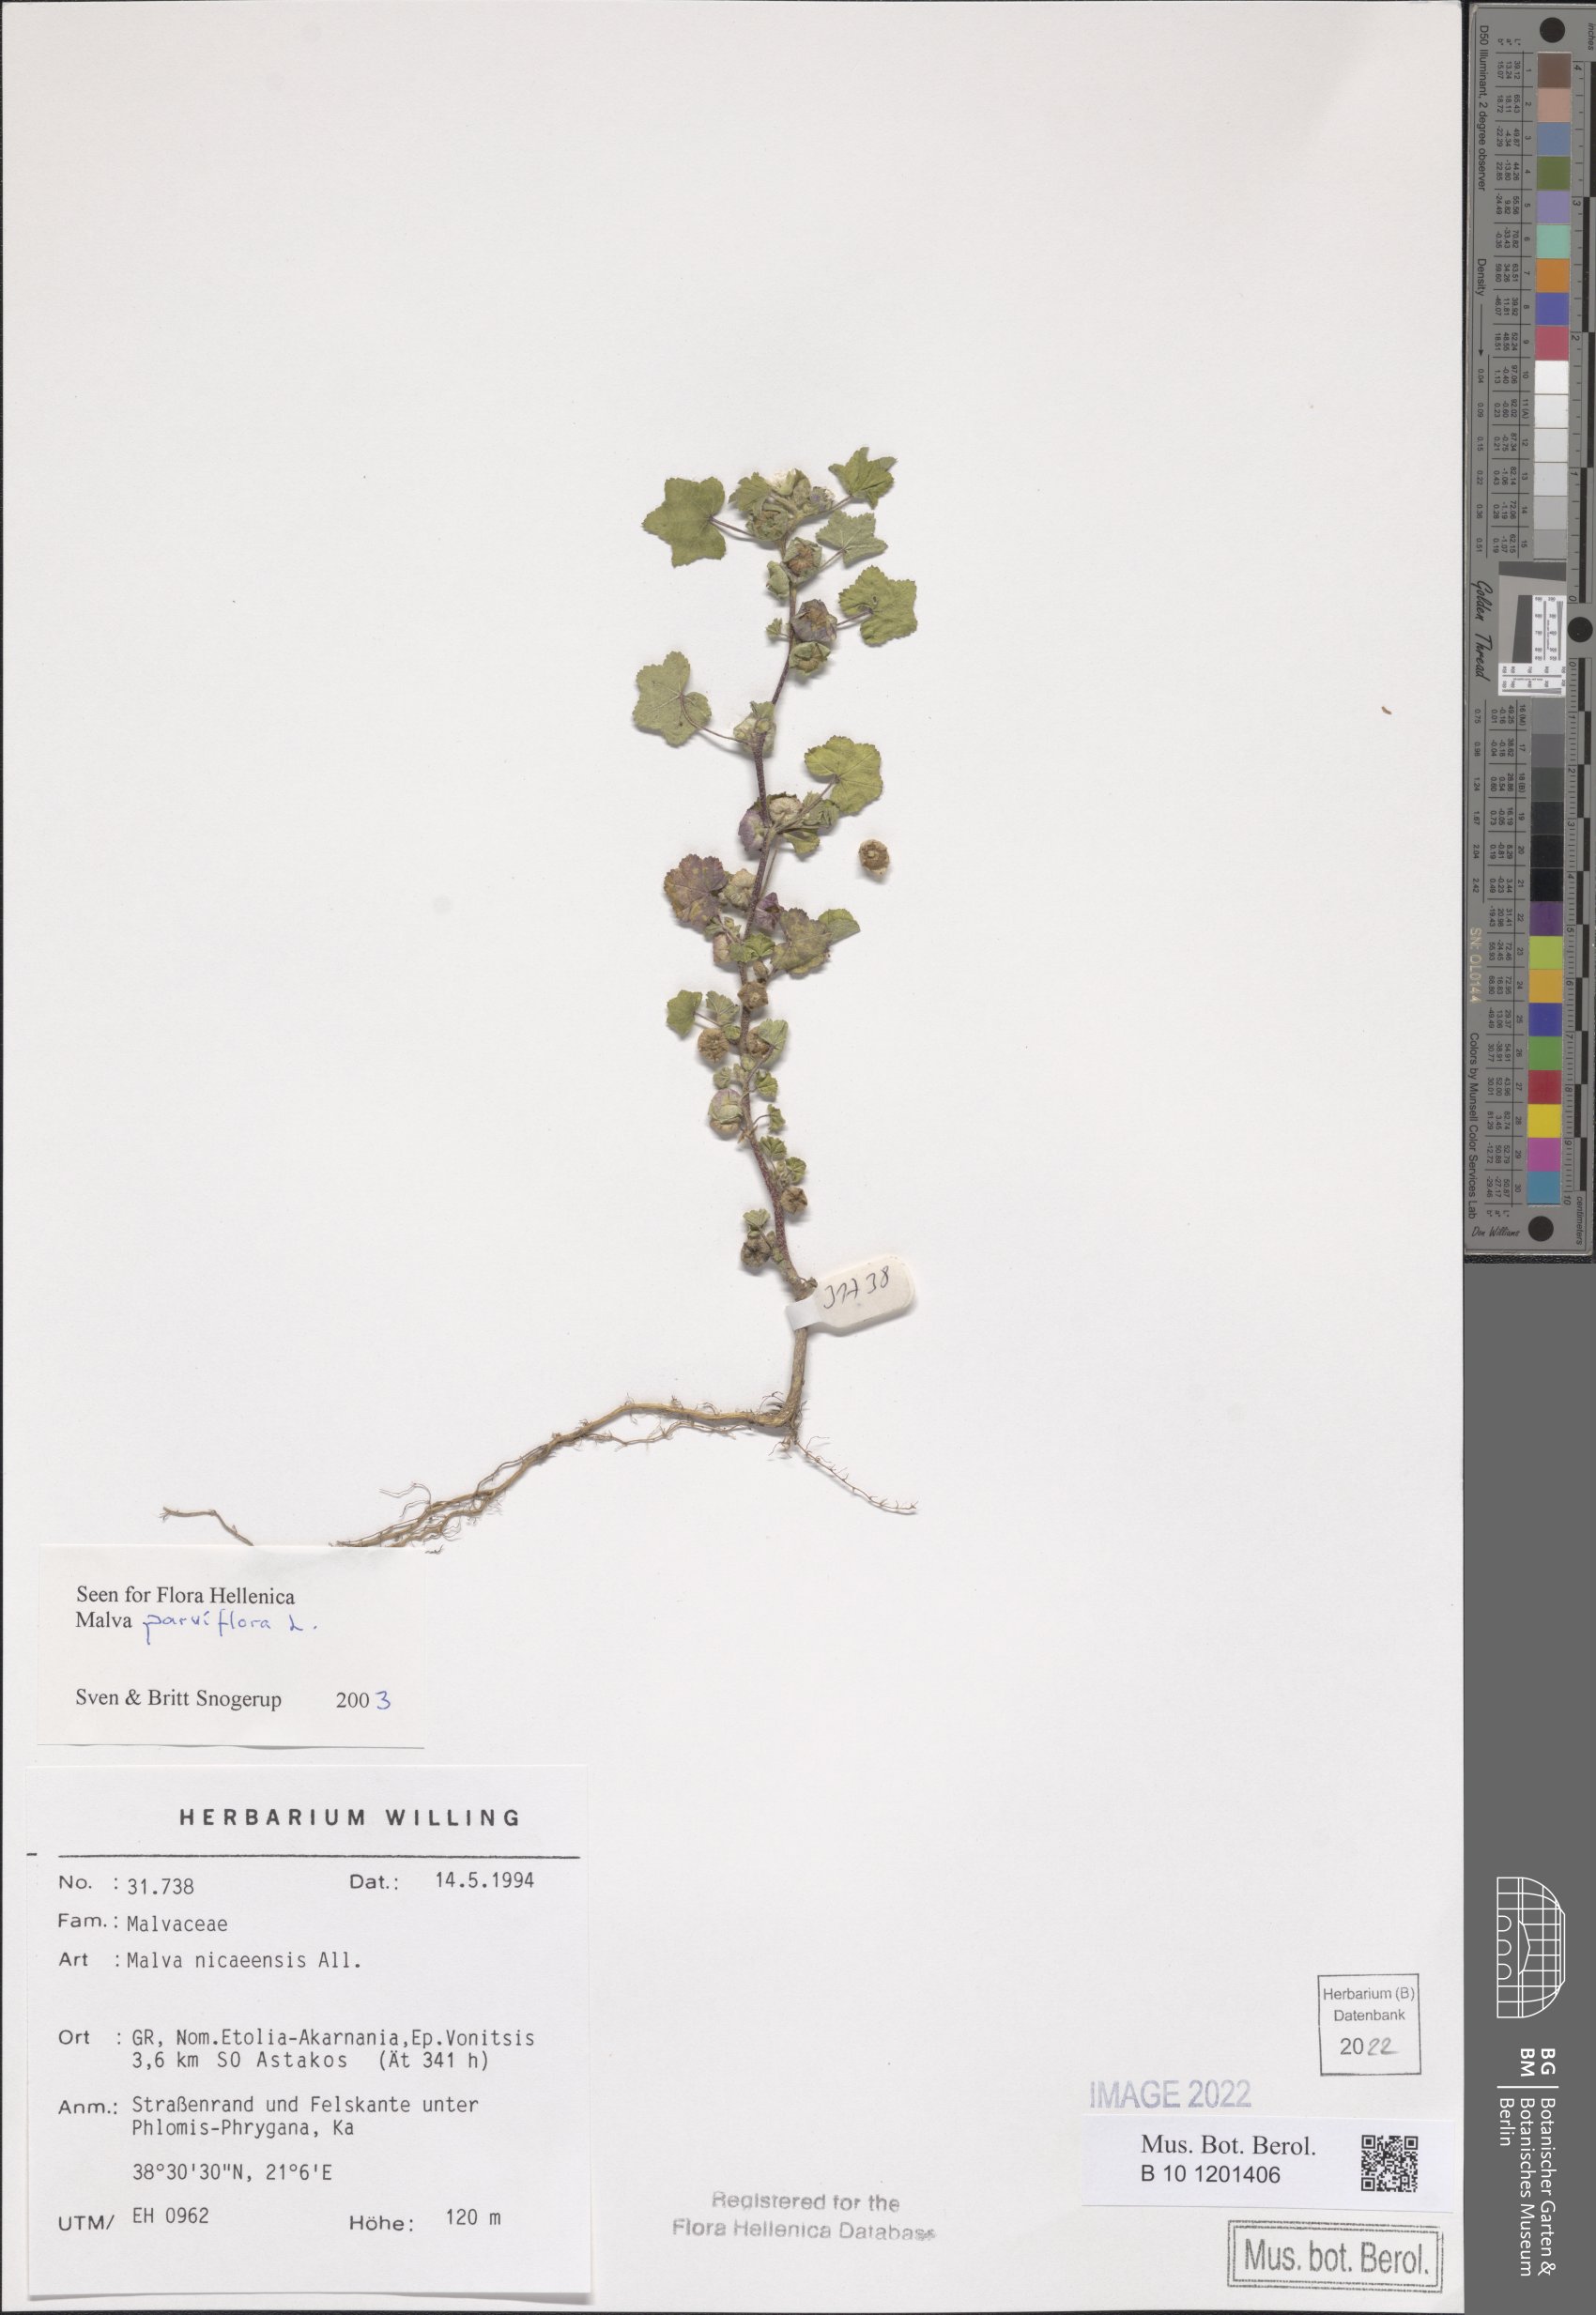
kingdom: Plantae
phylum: Tracheophyta
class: Magnoliopsida
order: Malvales
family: Malvaceae
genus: Malva
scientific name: Malva parviflora
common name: Least mallow
